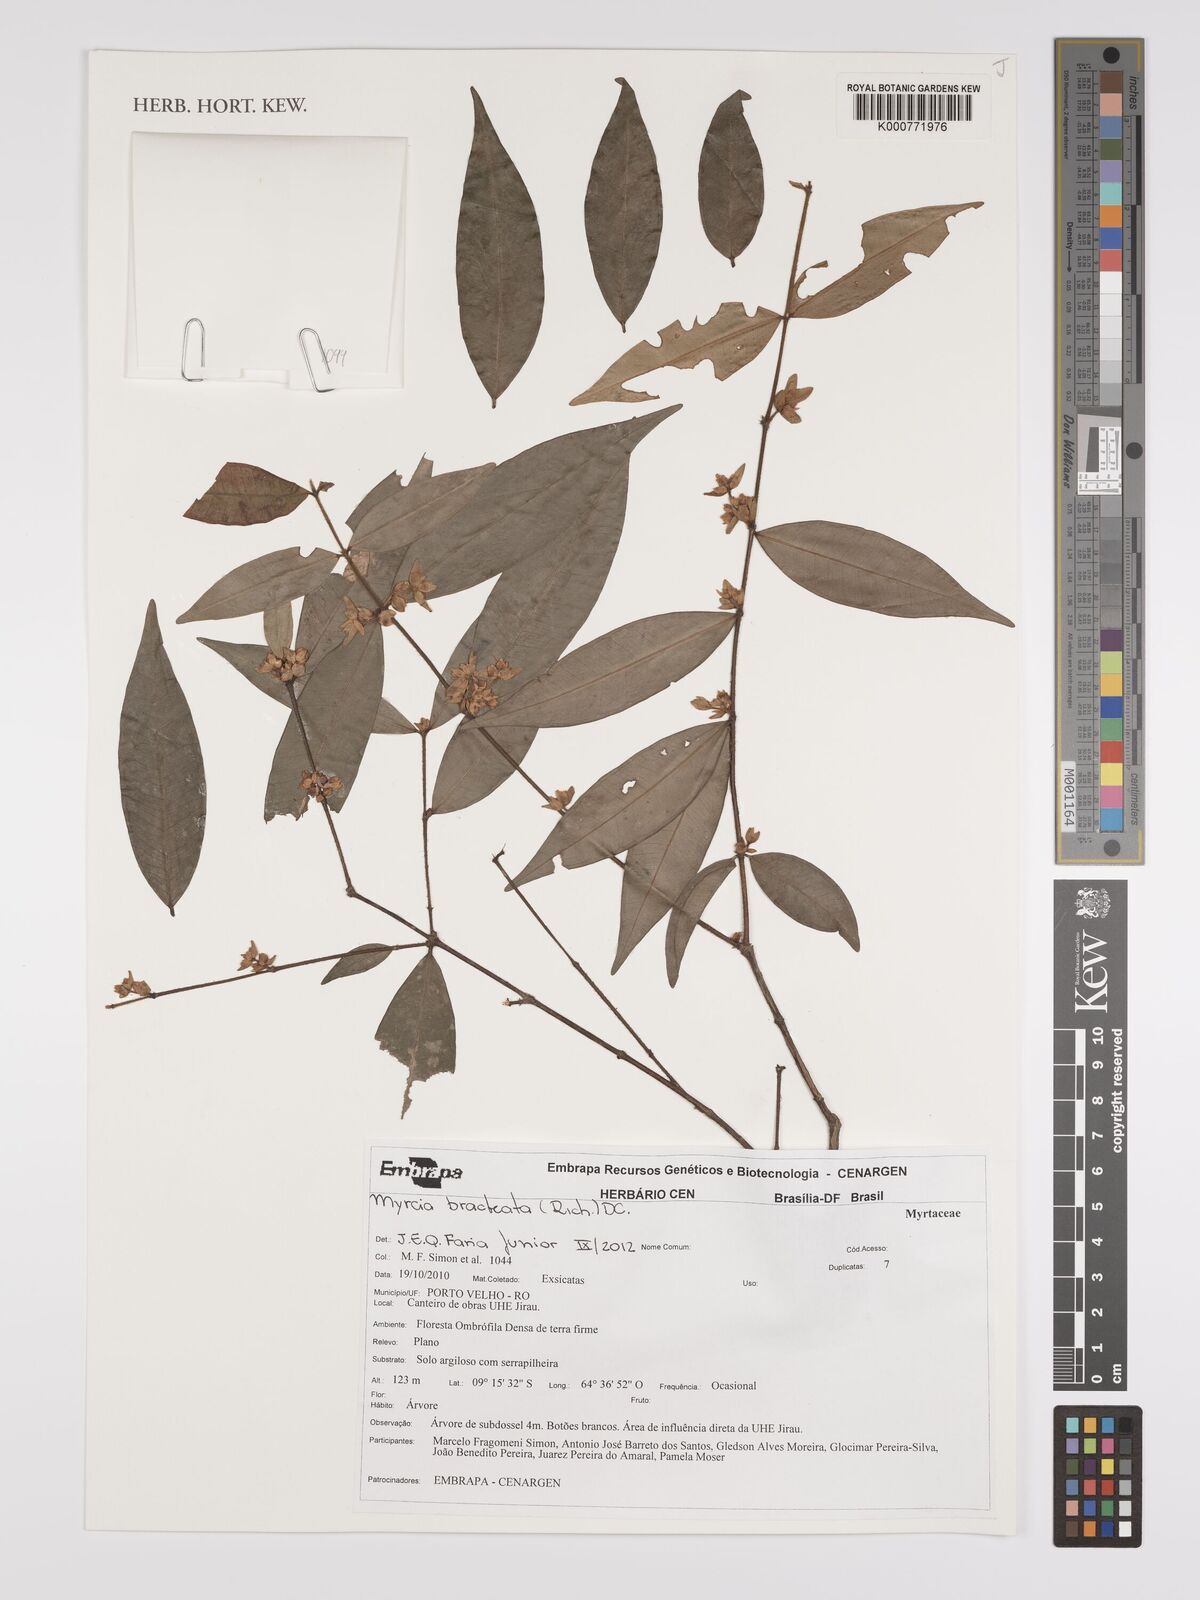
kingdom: Plantae
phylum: Tracheophyta
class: Magnoliopsida
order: Myrtales
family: Myrtaceae
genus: Myrcia
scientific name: Myrcia bracteata
